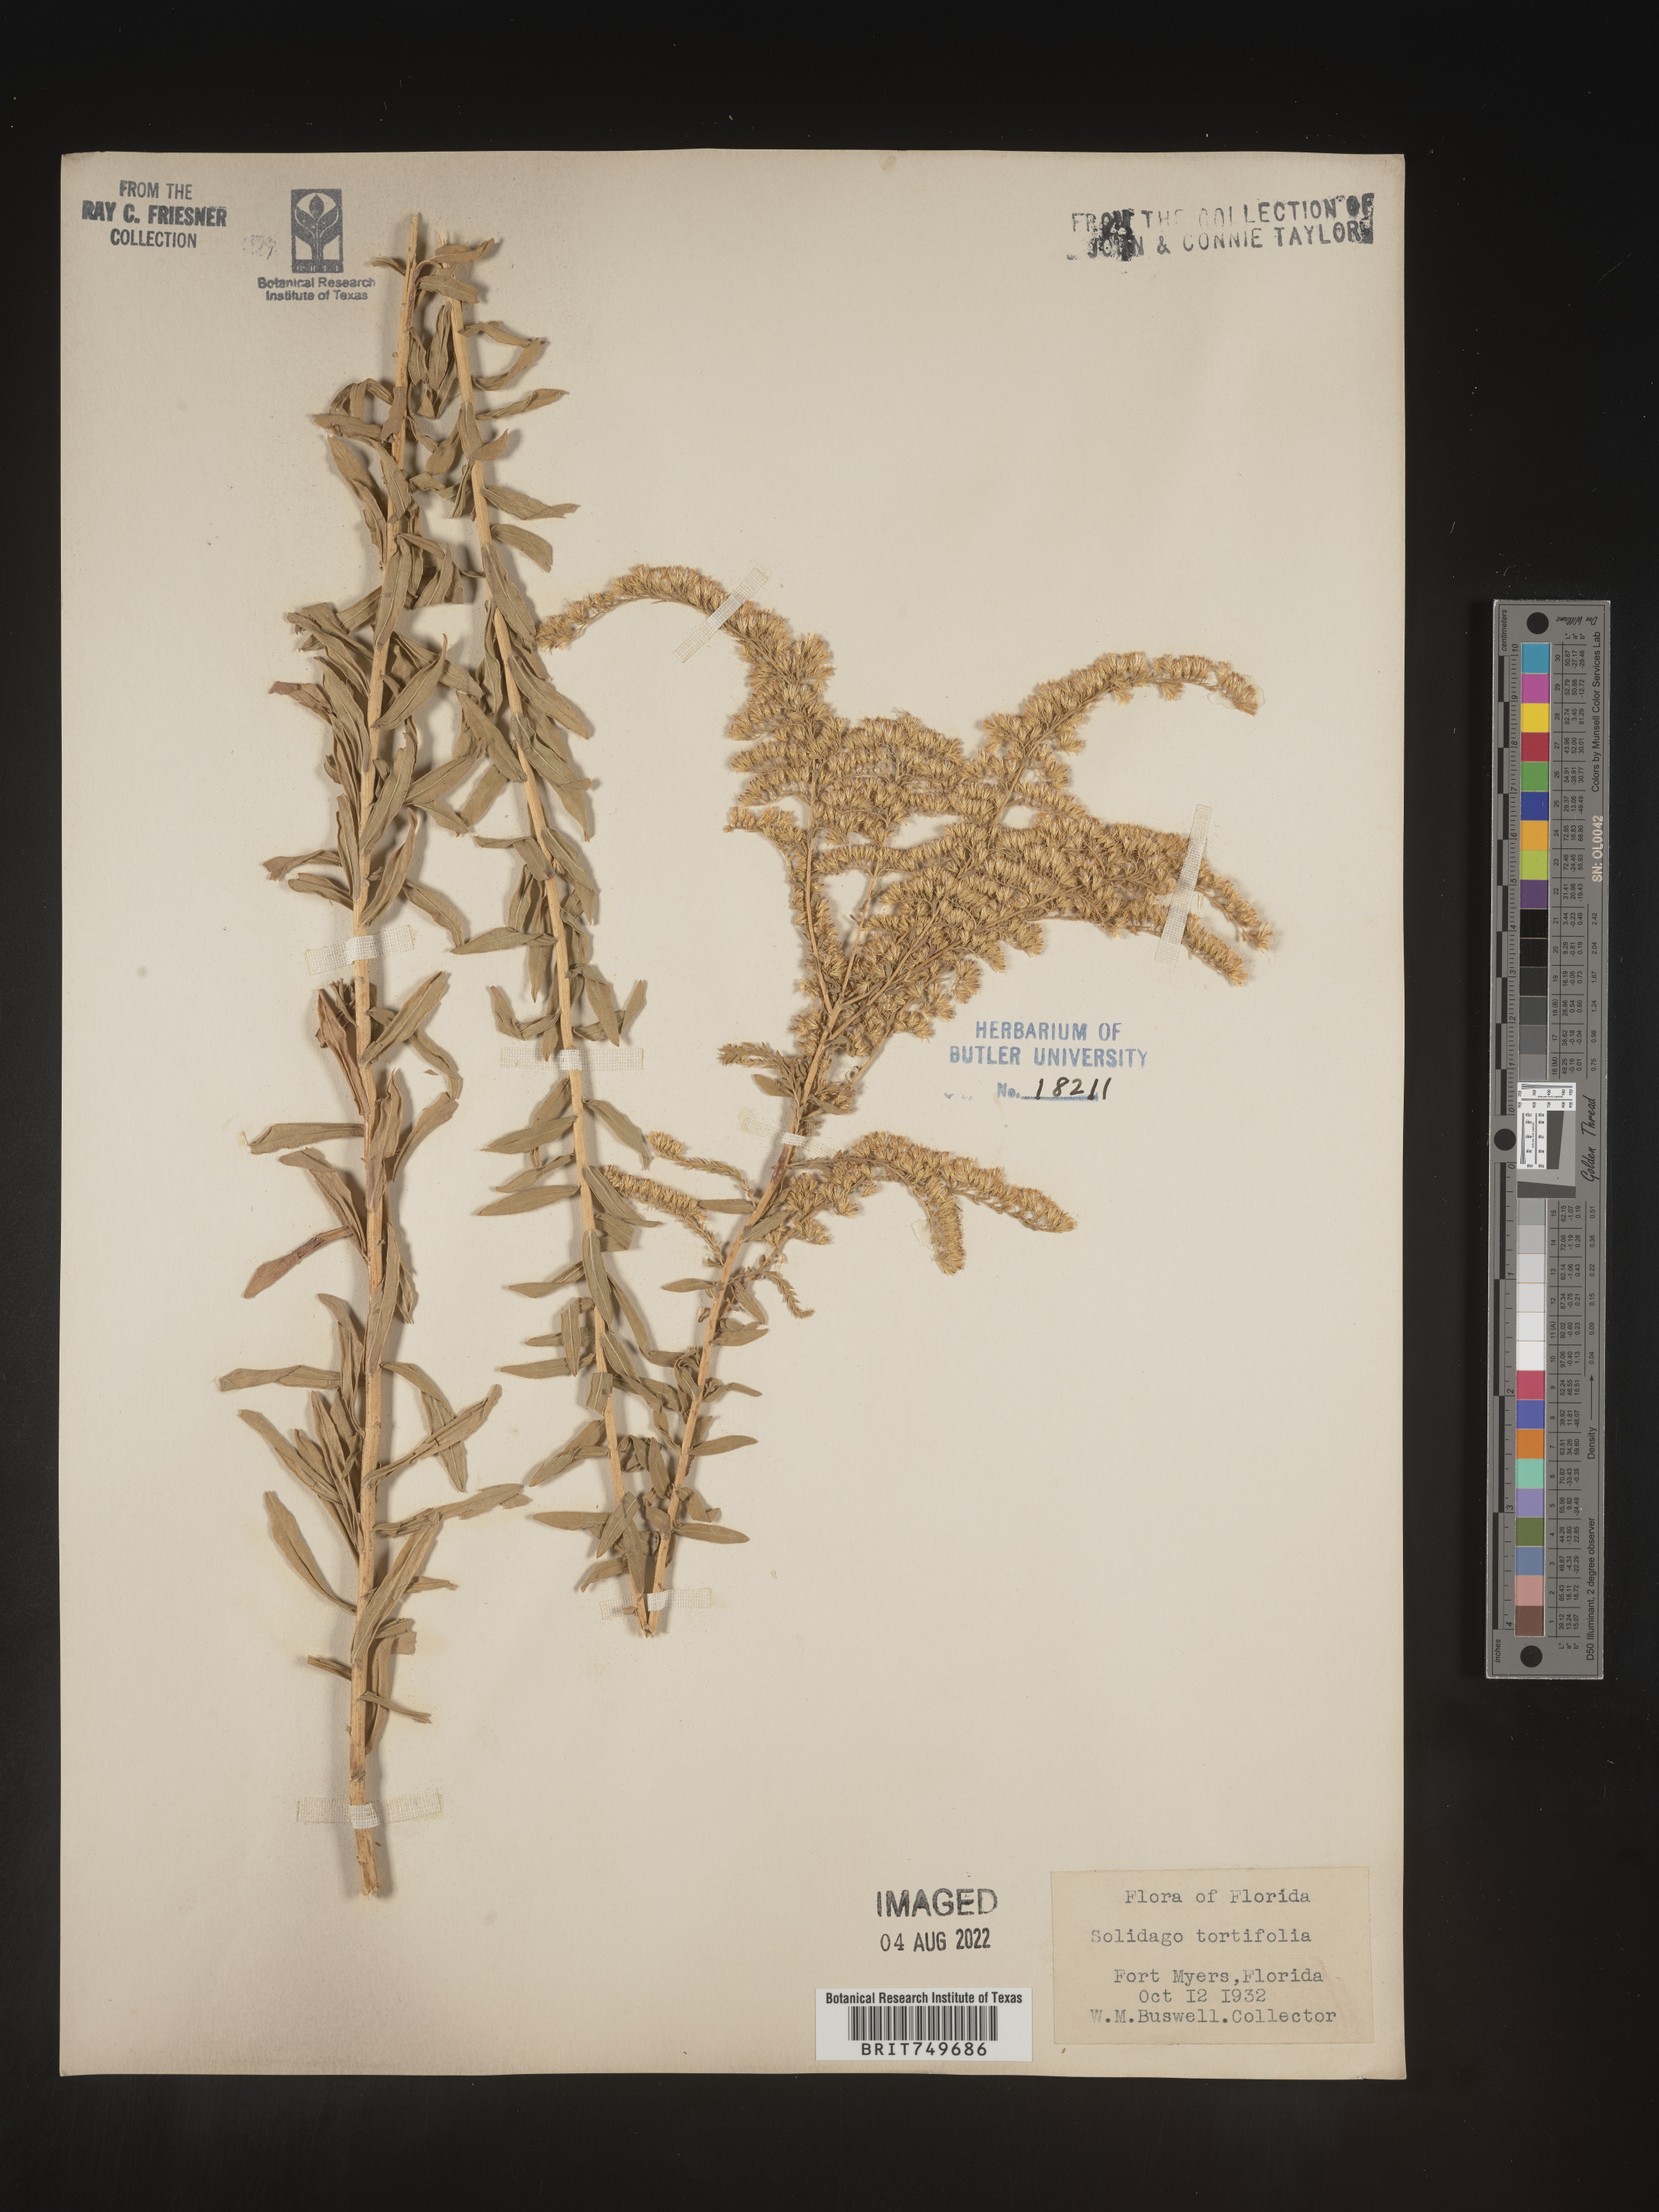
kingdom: Plantae
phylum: Tracheophyta
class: Magnoliopsida
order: Asterales
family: Asteraceae
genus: Solidago
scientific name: Solidago tortifolia
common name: Twisted-leaf goldenrod
